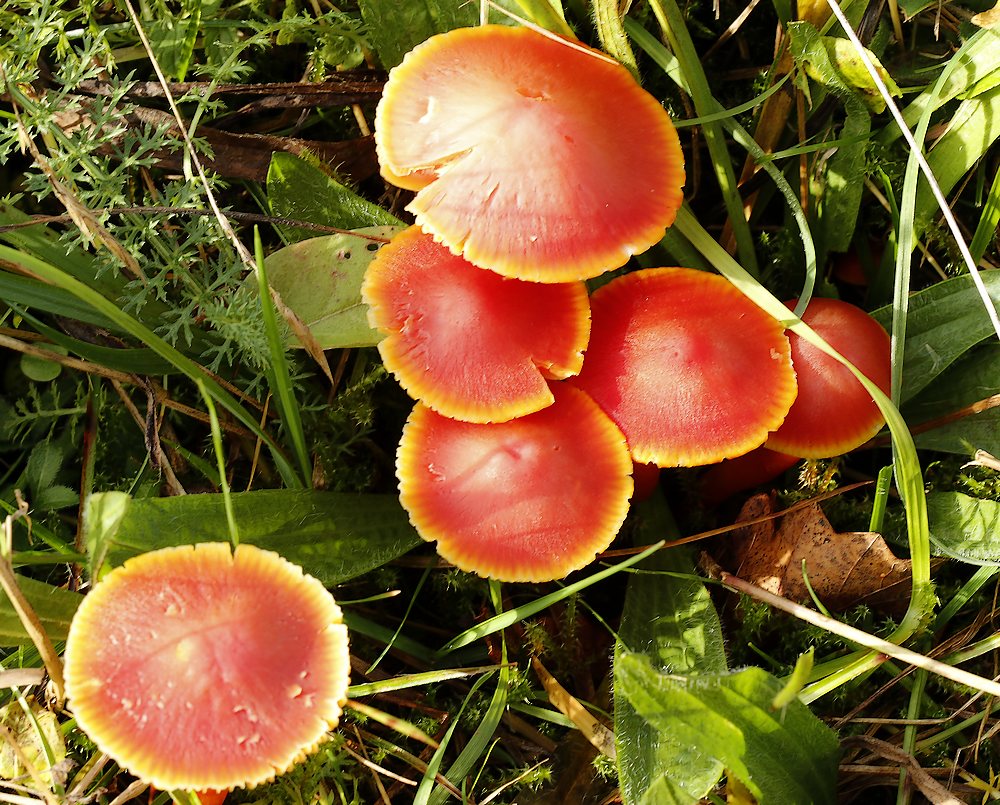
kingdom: Fungi
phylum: Basidiomycota
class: Agaricomycetes
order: Agaricales
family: Hygrophoraceae
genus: Hygrocybe
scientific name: Hygrocybe coccinea
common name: cinnober-vokshat
